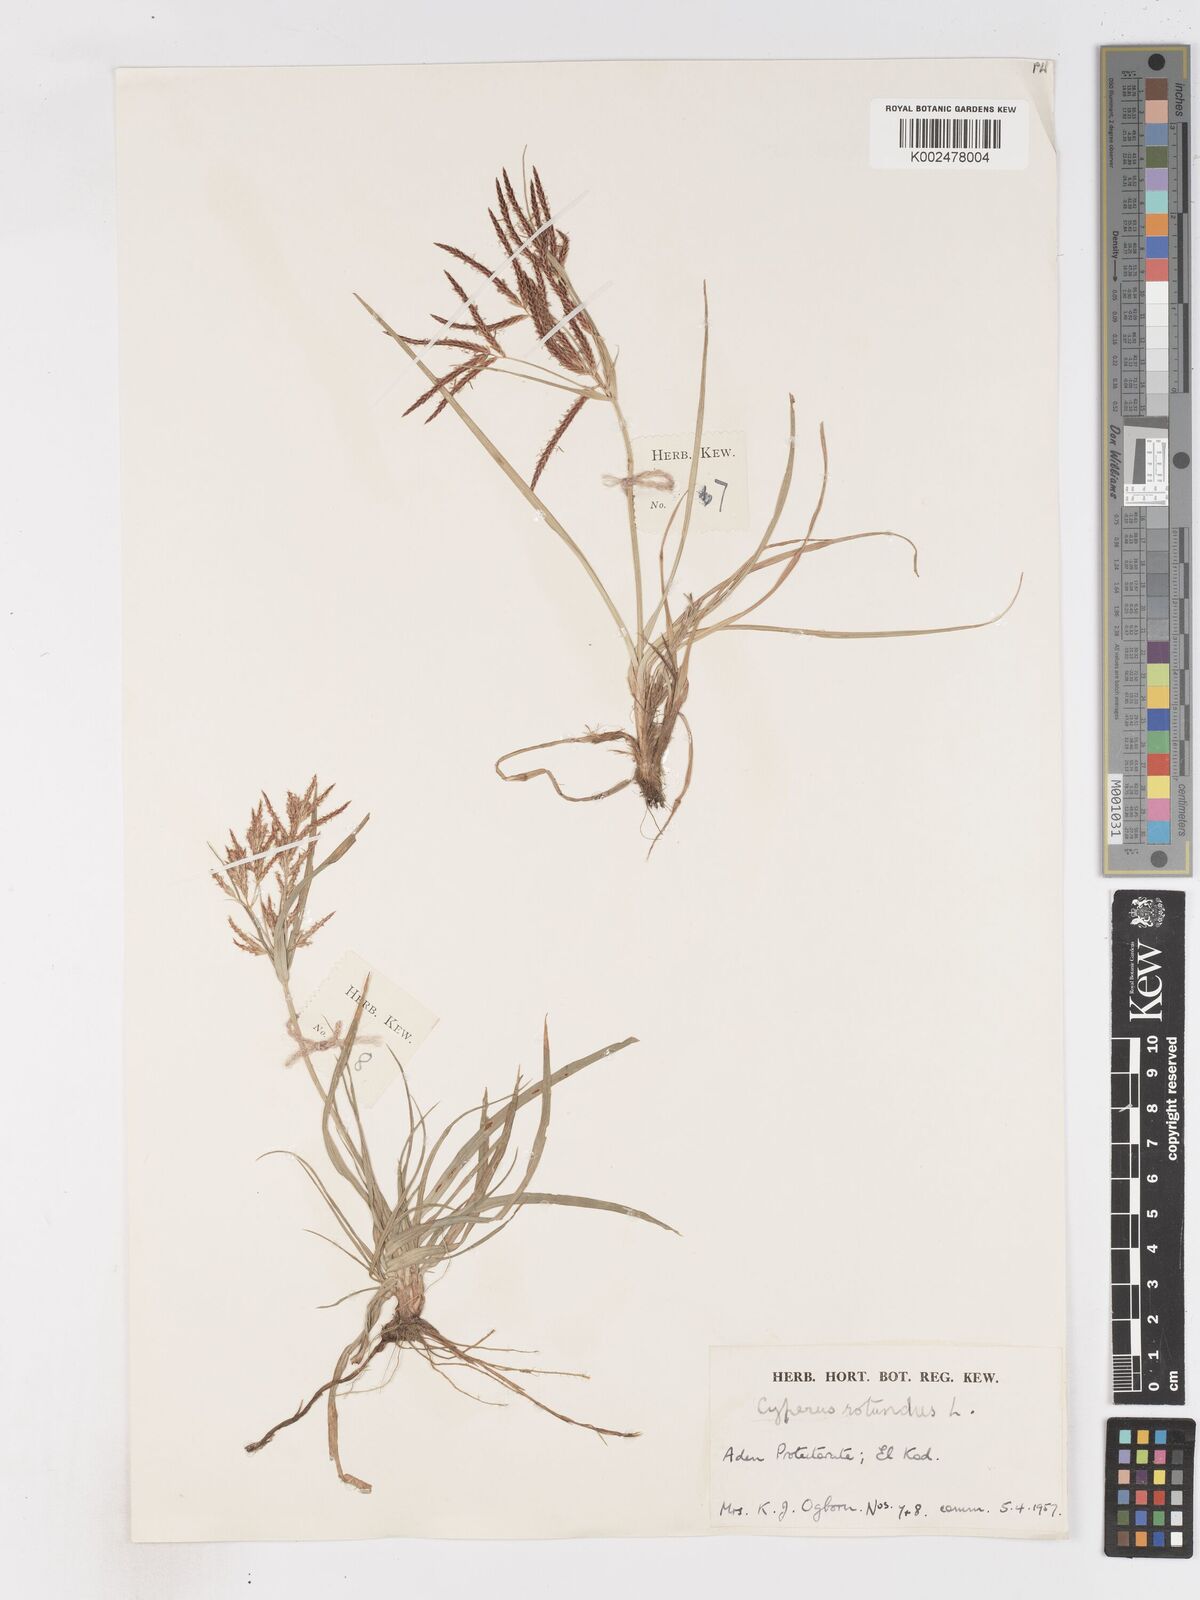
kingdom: Plantae
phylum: Tracheophyta
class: Liliopsida
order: Poales
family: Cyperaceae
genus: Cyperus
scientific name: Cyperus rotundus
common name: Nutgrass
